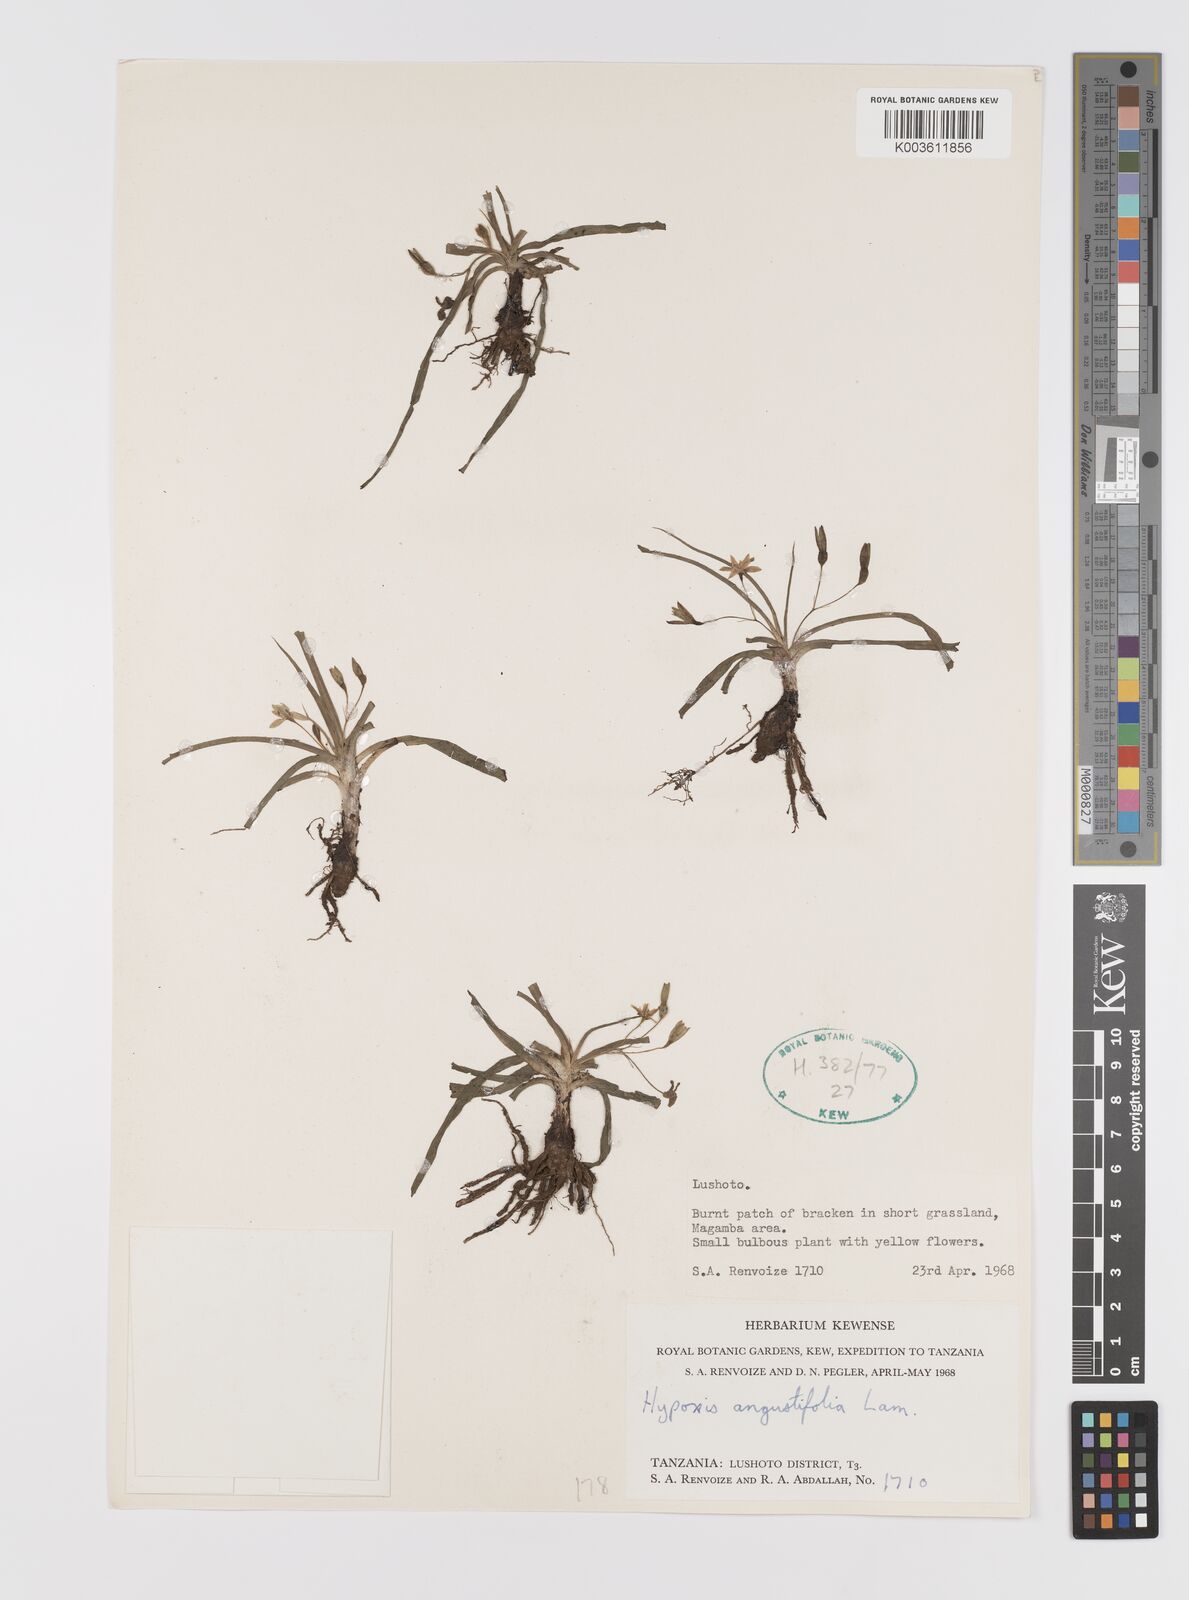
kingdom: Plantae
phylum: Tracheophyta
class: Liliopsida
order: Asparagales
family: Hypoxidaceae
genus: Hypoxis
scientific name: Hypoxis angustifolia
